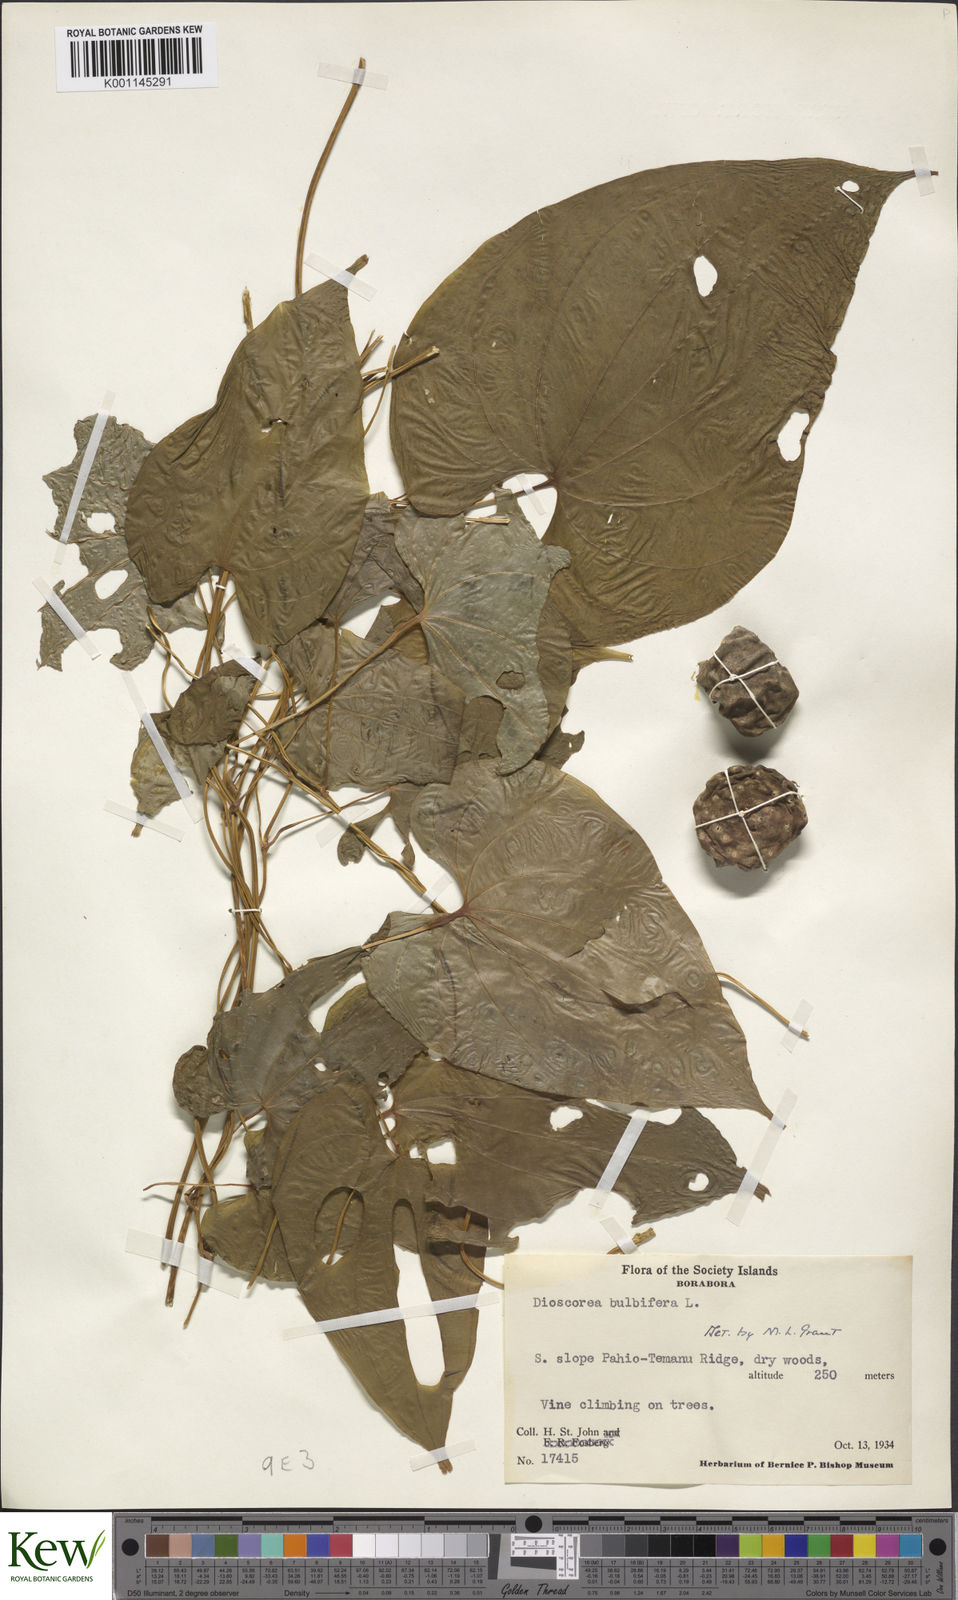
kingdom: Plantae
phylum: Tracheophyta
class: Liliopsida
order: Dioscoreales
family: Dioscoreaceae
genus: Dioscorea
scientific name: Dioscorea bulbifera
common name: Air yam
